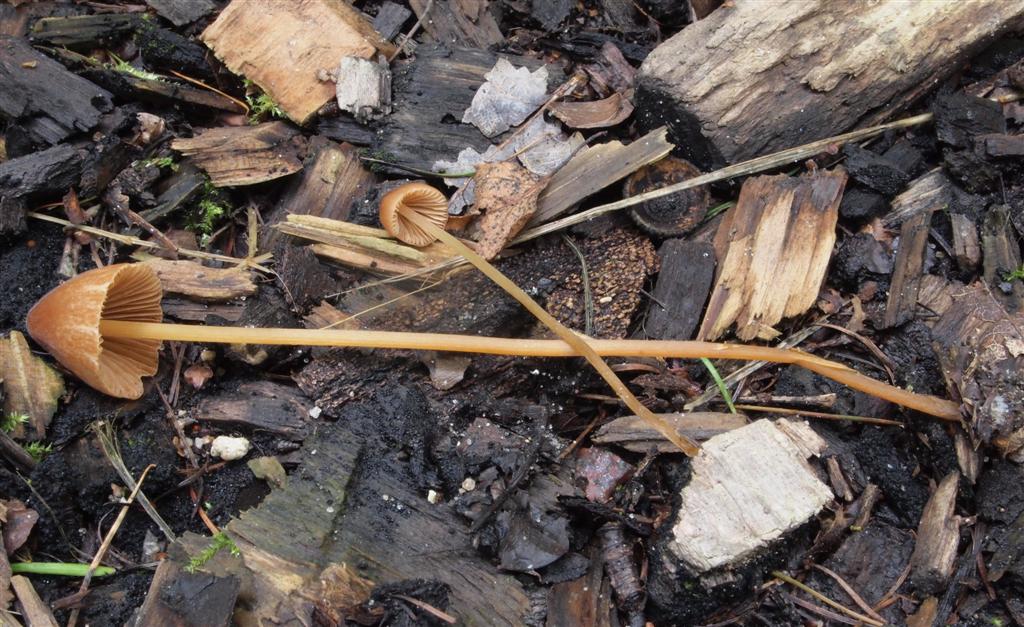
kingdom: Fungi
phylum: Basidiomycota
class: Agaricomycetes
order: Agaricales
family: Bolbitiaceae
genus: Conocybe
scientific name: Conocybe subpubescens
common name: krat-keglehat
